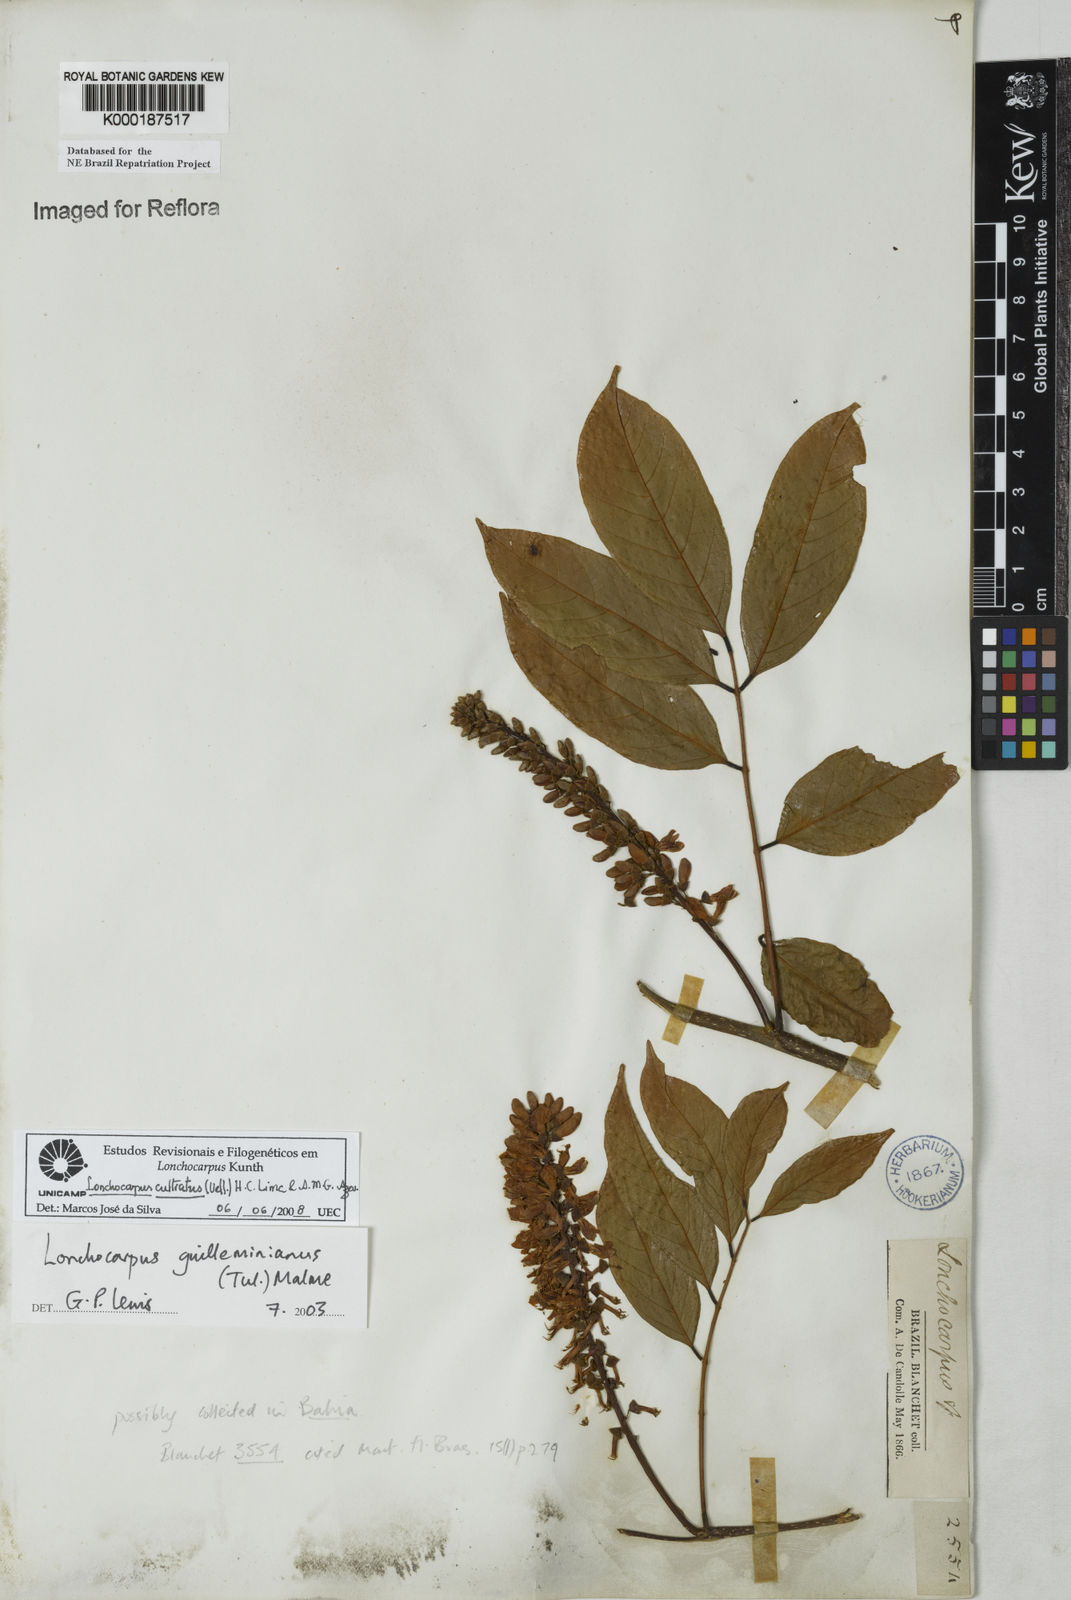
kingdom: Plantae
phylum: Tracheophyta
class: Magnoliopsida
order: Fabales
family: Fabaceae
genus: Lonchocarpus
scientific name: Lonchocarpus
